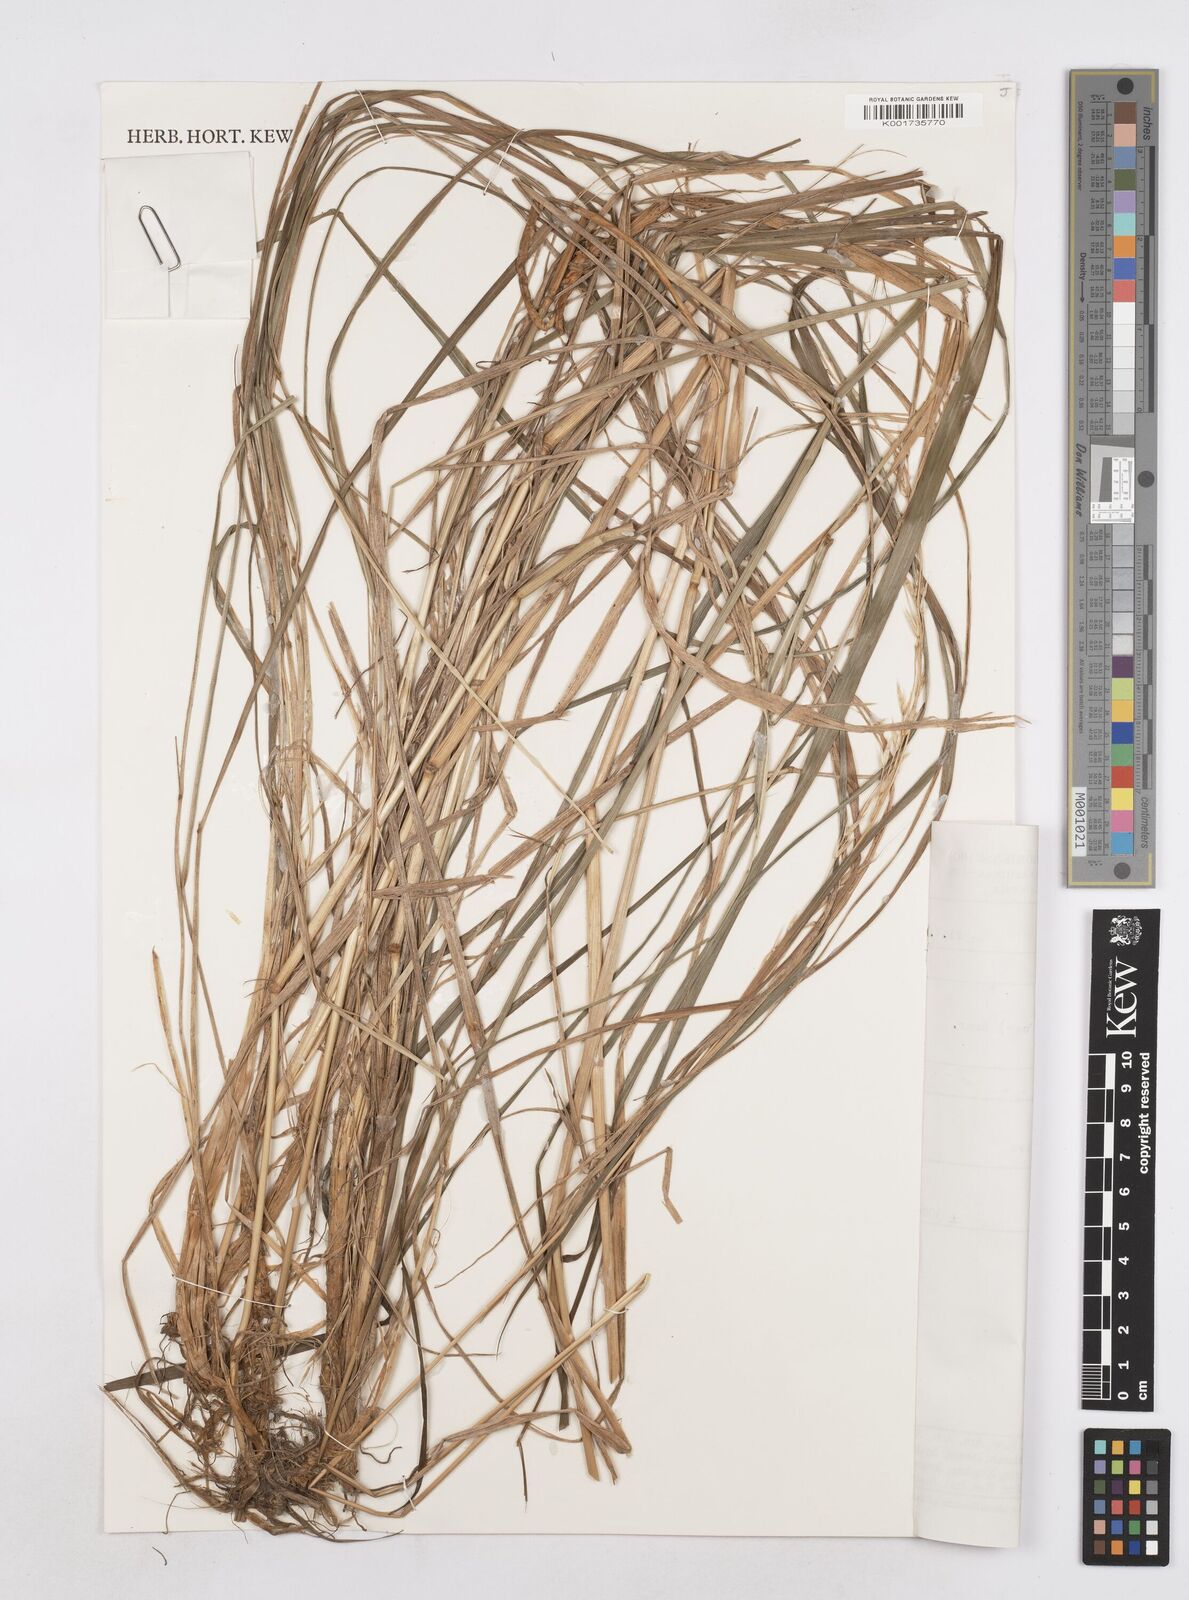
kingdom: Plantae
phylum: Tracheophyta
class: Liliopsida
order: Poales
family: Poaceae
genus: Trisetopsis
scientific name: Trisetopsis junghuhnii
